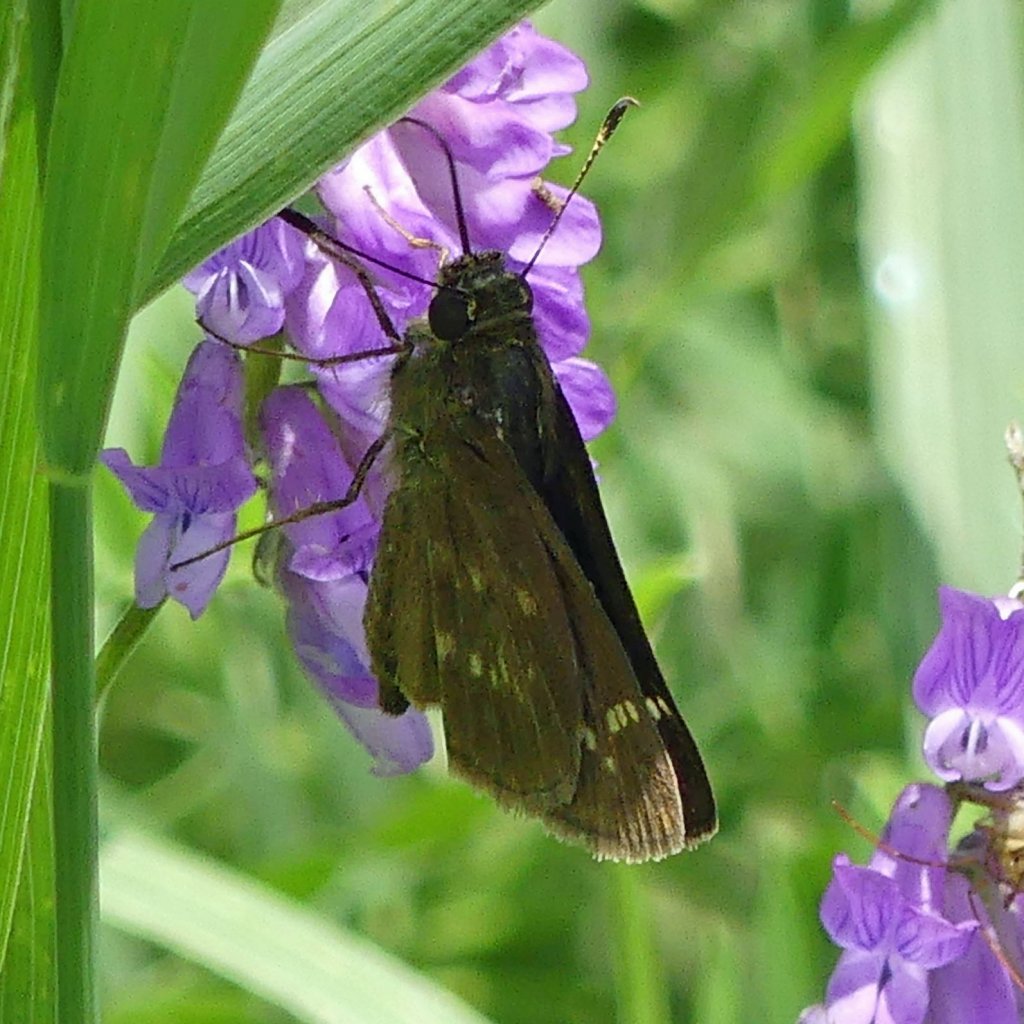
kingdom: Animalia
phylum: Arthropoda
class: Insecta
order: Lepidoptera
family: Hesperiidae
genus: Vernia
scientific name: Vernia verna
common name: Little Glassywing
